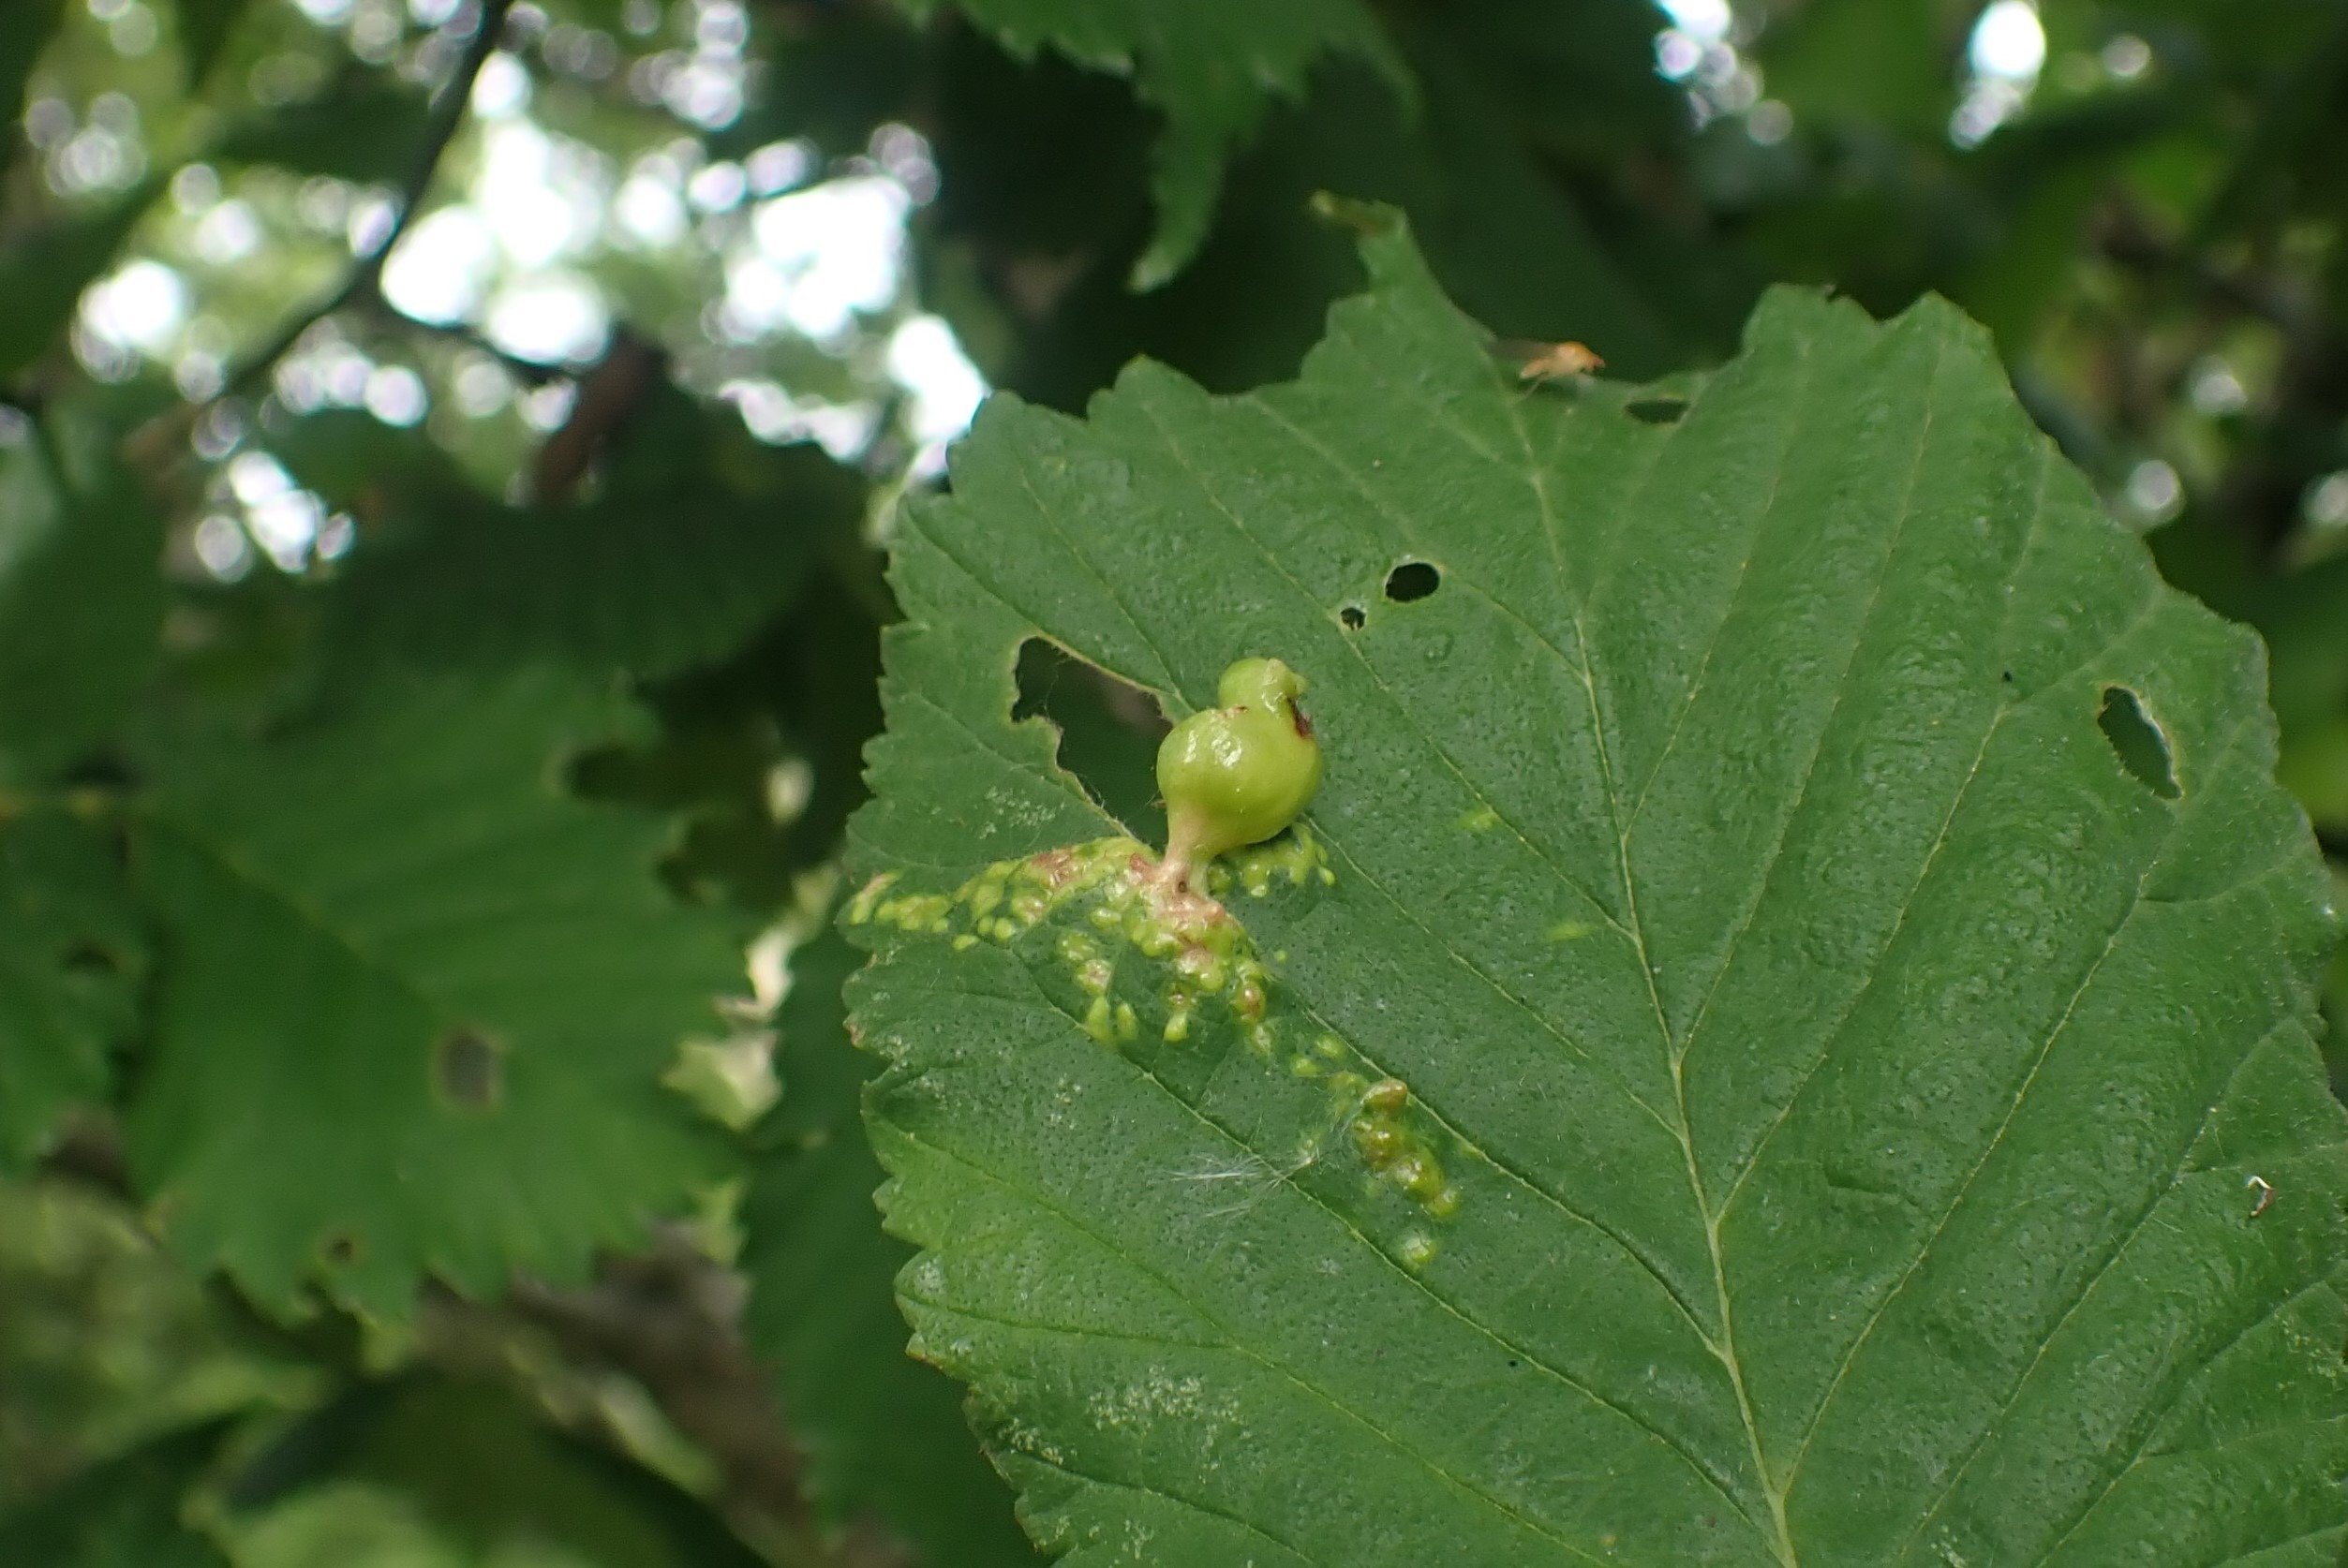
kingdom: Animalia
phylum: Arthropoda
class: Insecta
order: Hemiptera
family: Aphididae
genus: Tetraneura
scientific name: Tetraneura ulmi
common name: Elmegallelus
